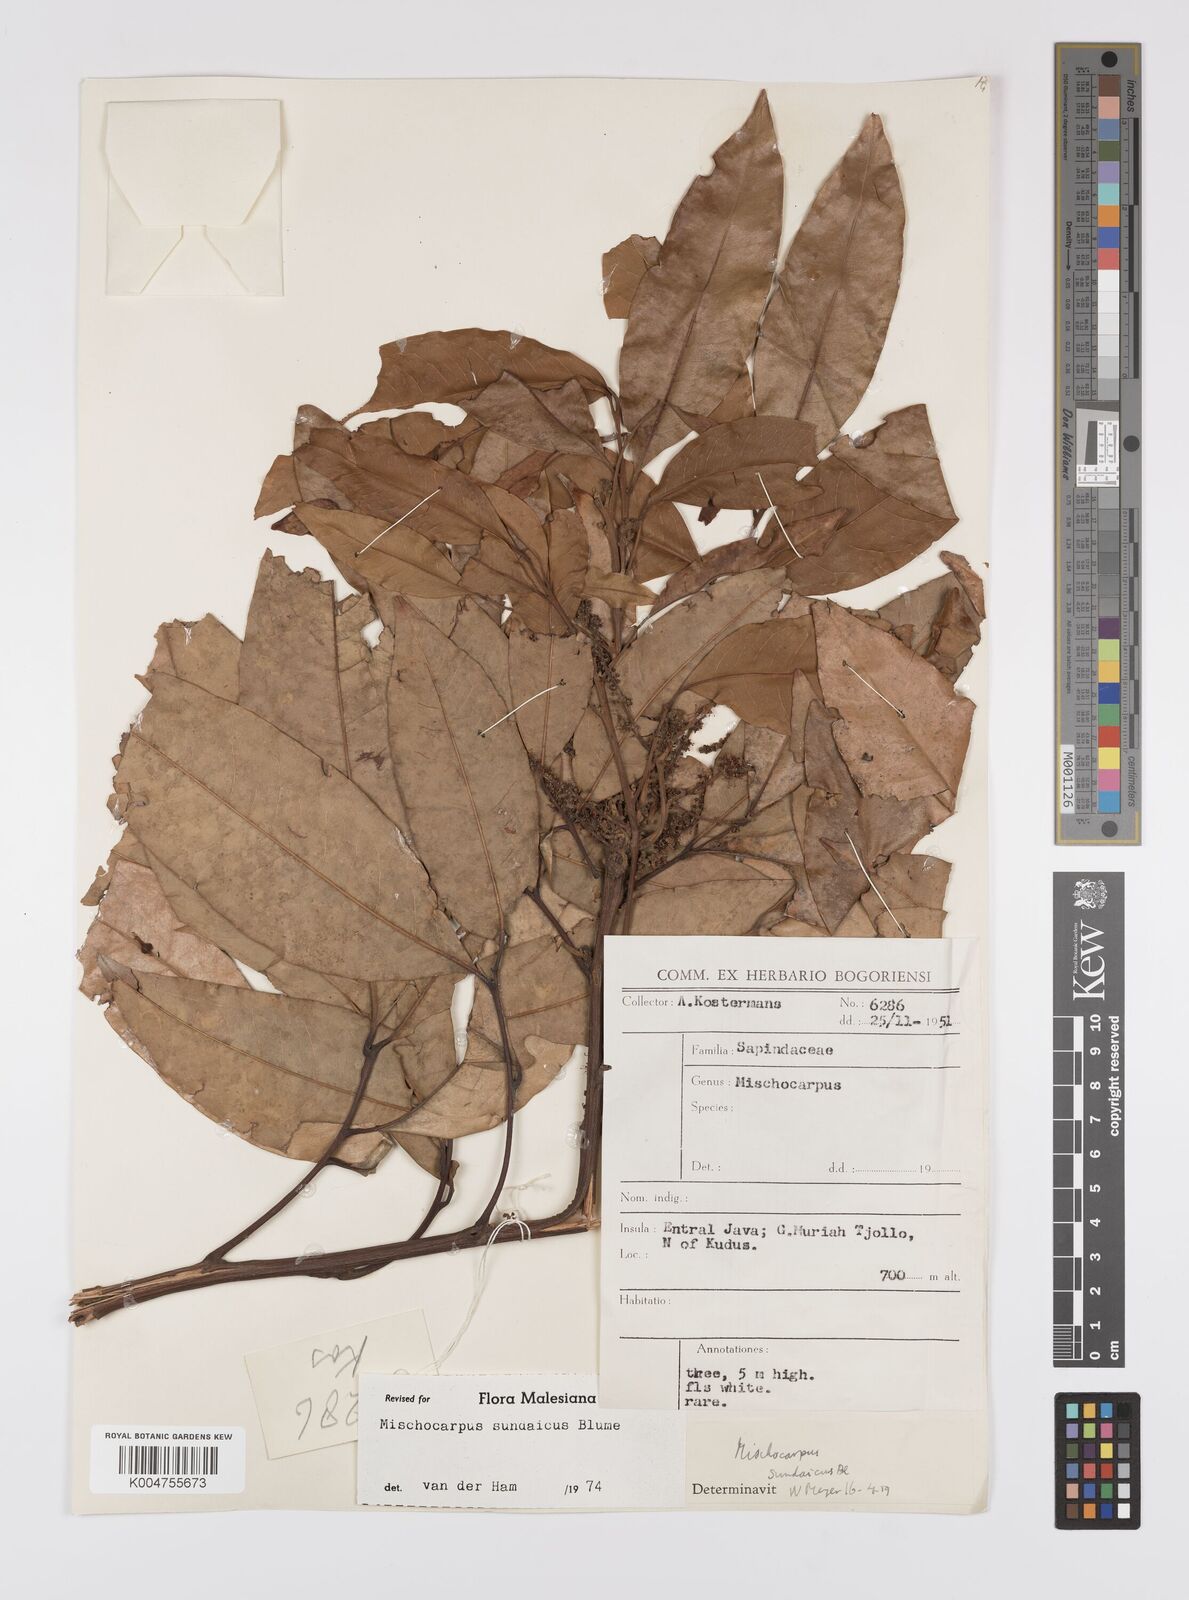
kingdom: Plantae
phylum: Tracheophyta
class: Magnoliopsida
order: Sapindales
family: Sapindaceae
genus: Mischocarpus
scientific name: Mischocarpus sundaicus
